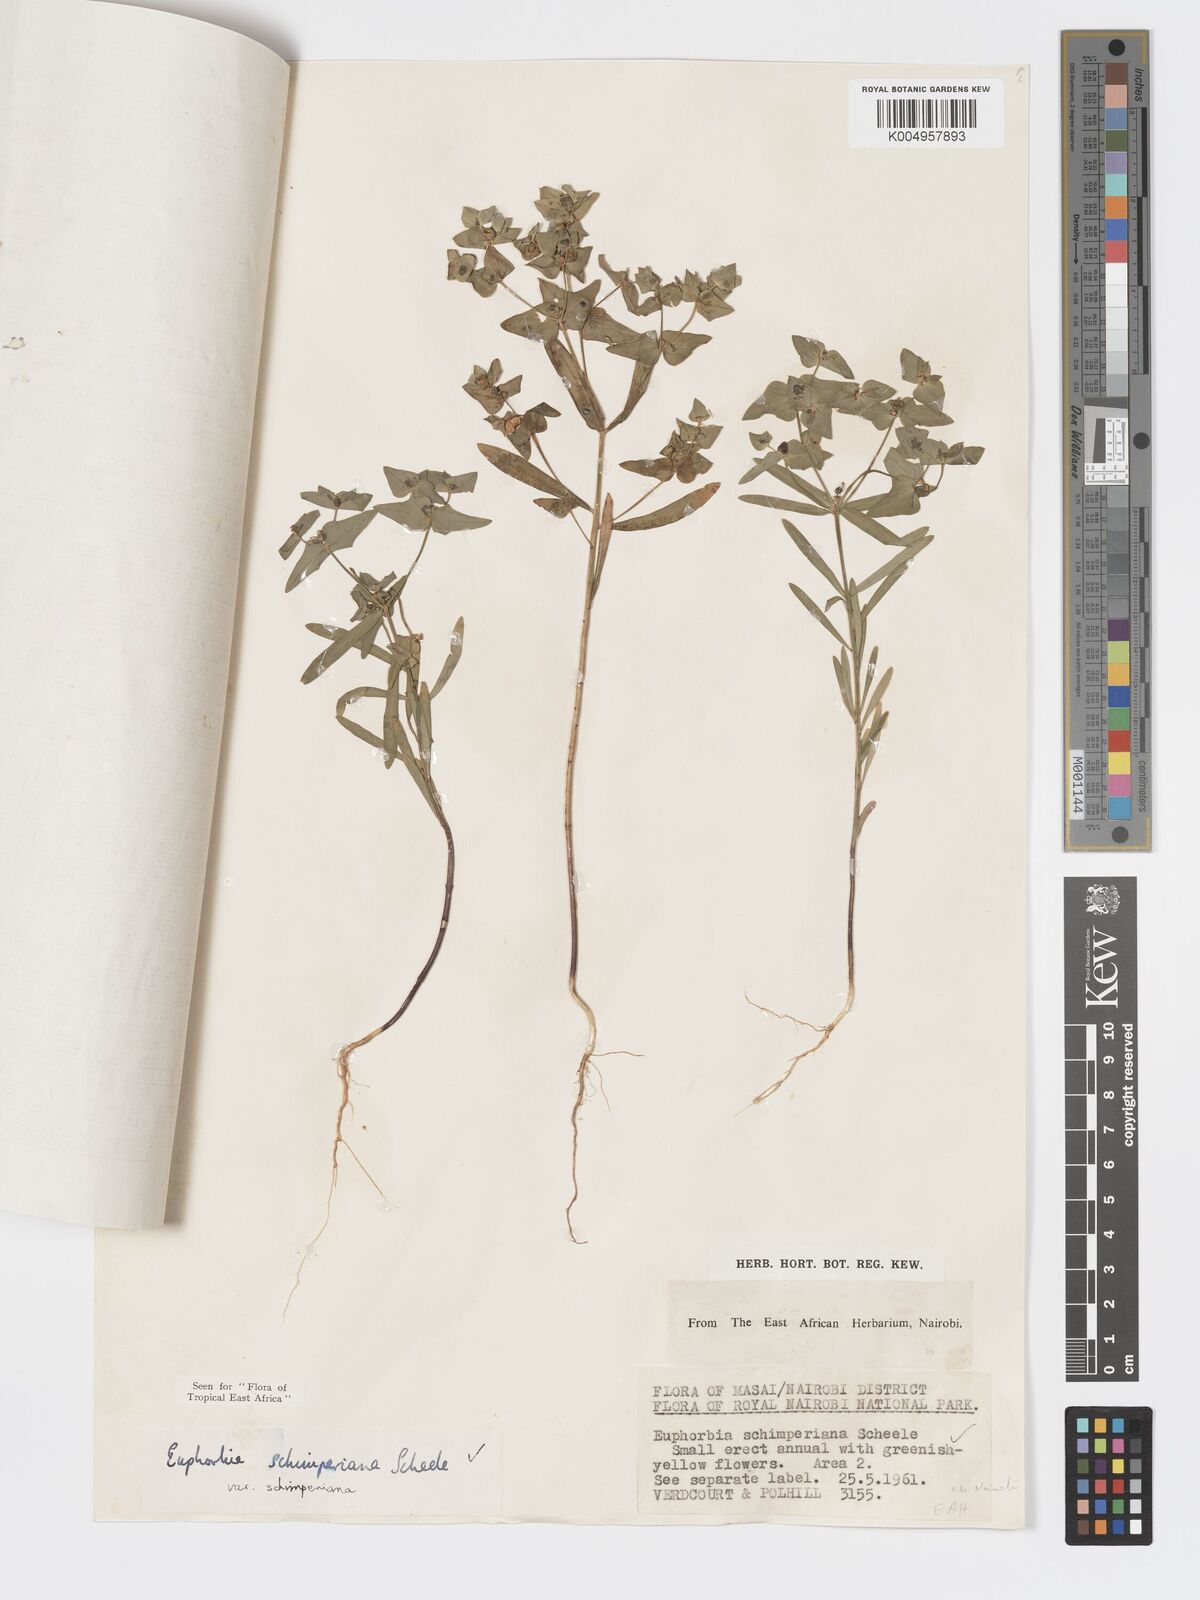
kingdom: Plantae
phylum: Tracheophyta
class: Magnoliopsida
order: Malpighiales
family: Euphorbiaceae
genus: Euphorbia
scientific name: Euphorbia schimperiana
